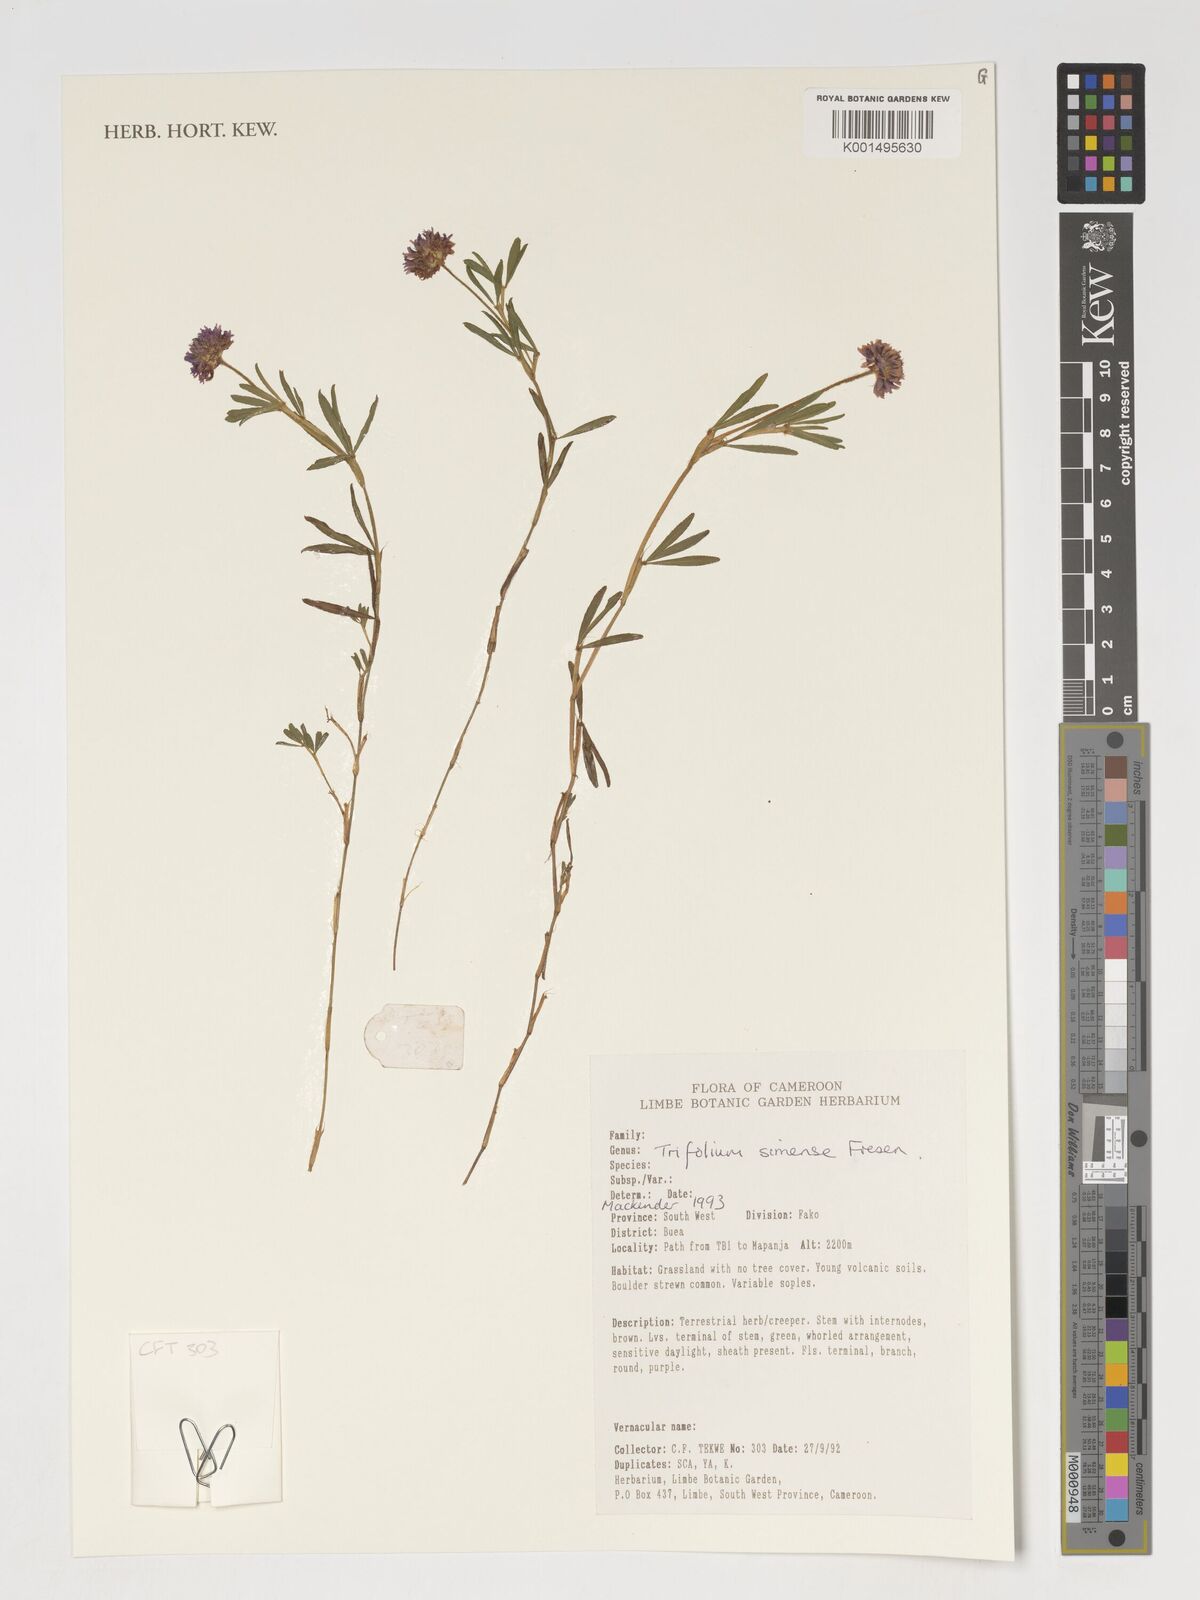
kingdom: Plantae
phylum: Tracheophyta
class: Magnoliopsida
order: Fabales
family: Fabaceae
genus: Trifolium
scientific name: Trifolium simense
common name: Simen clover
